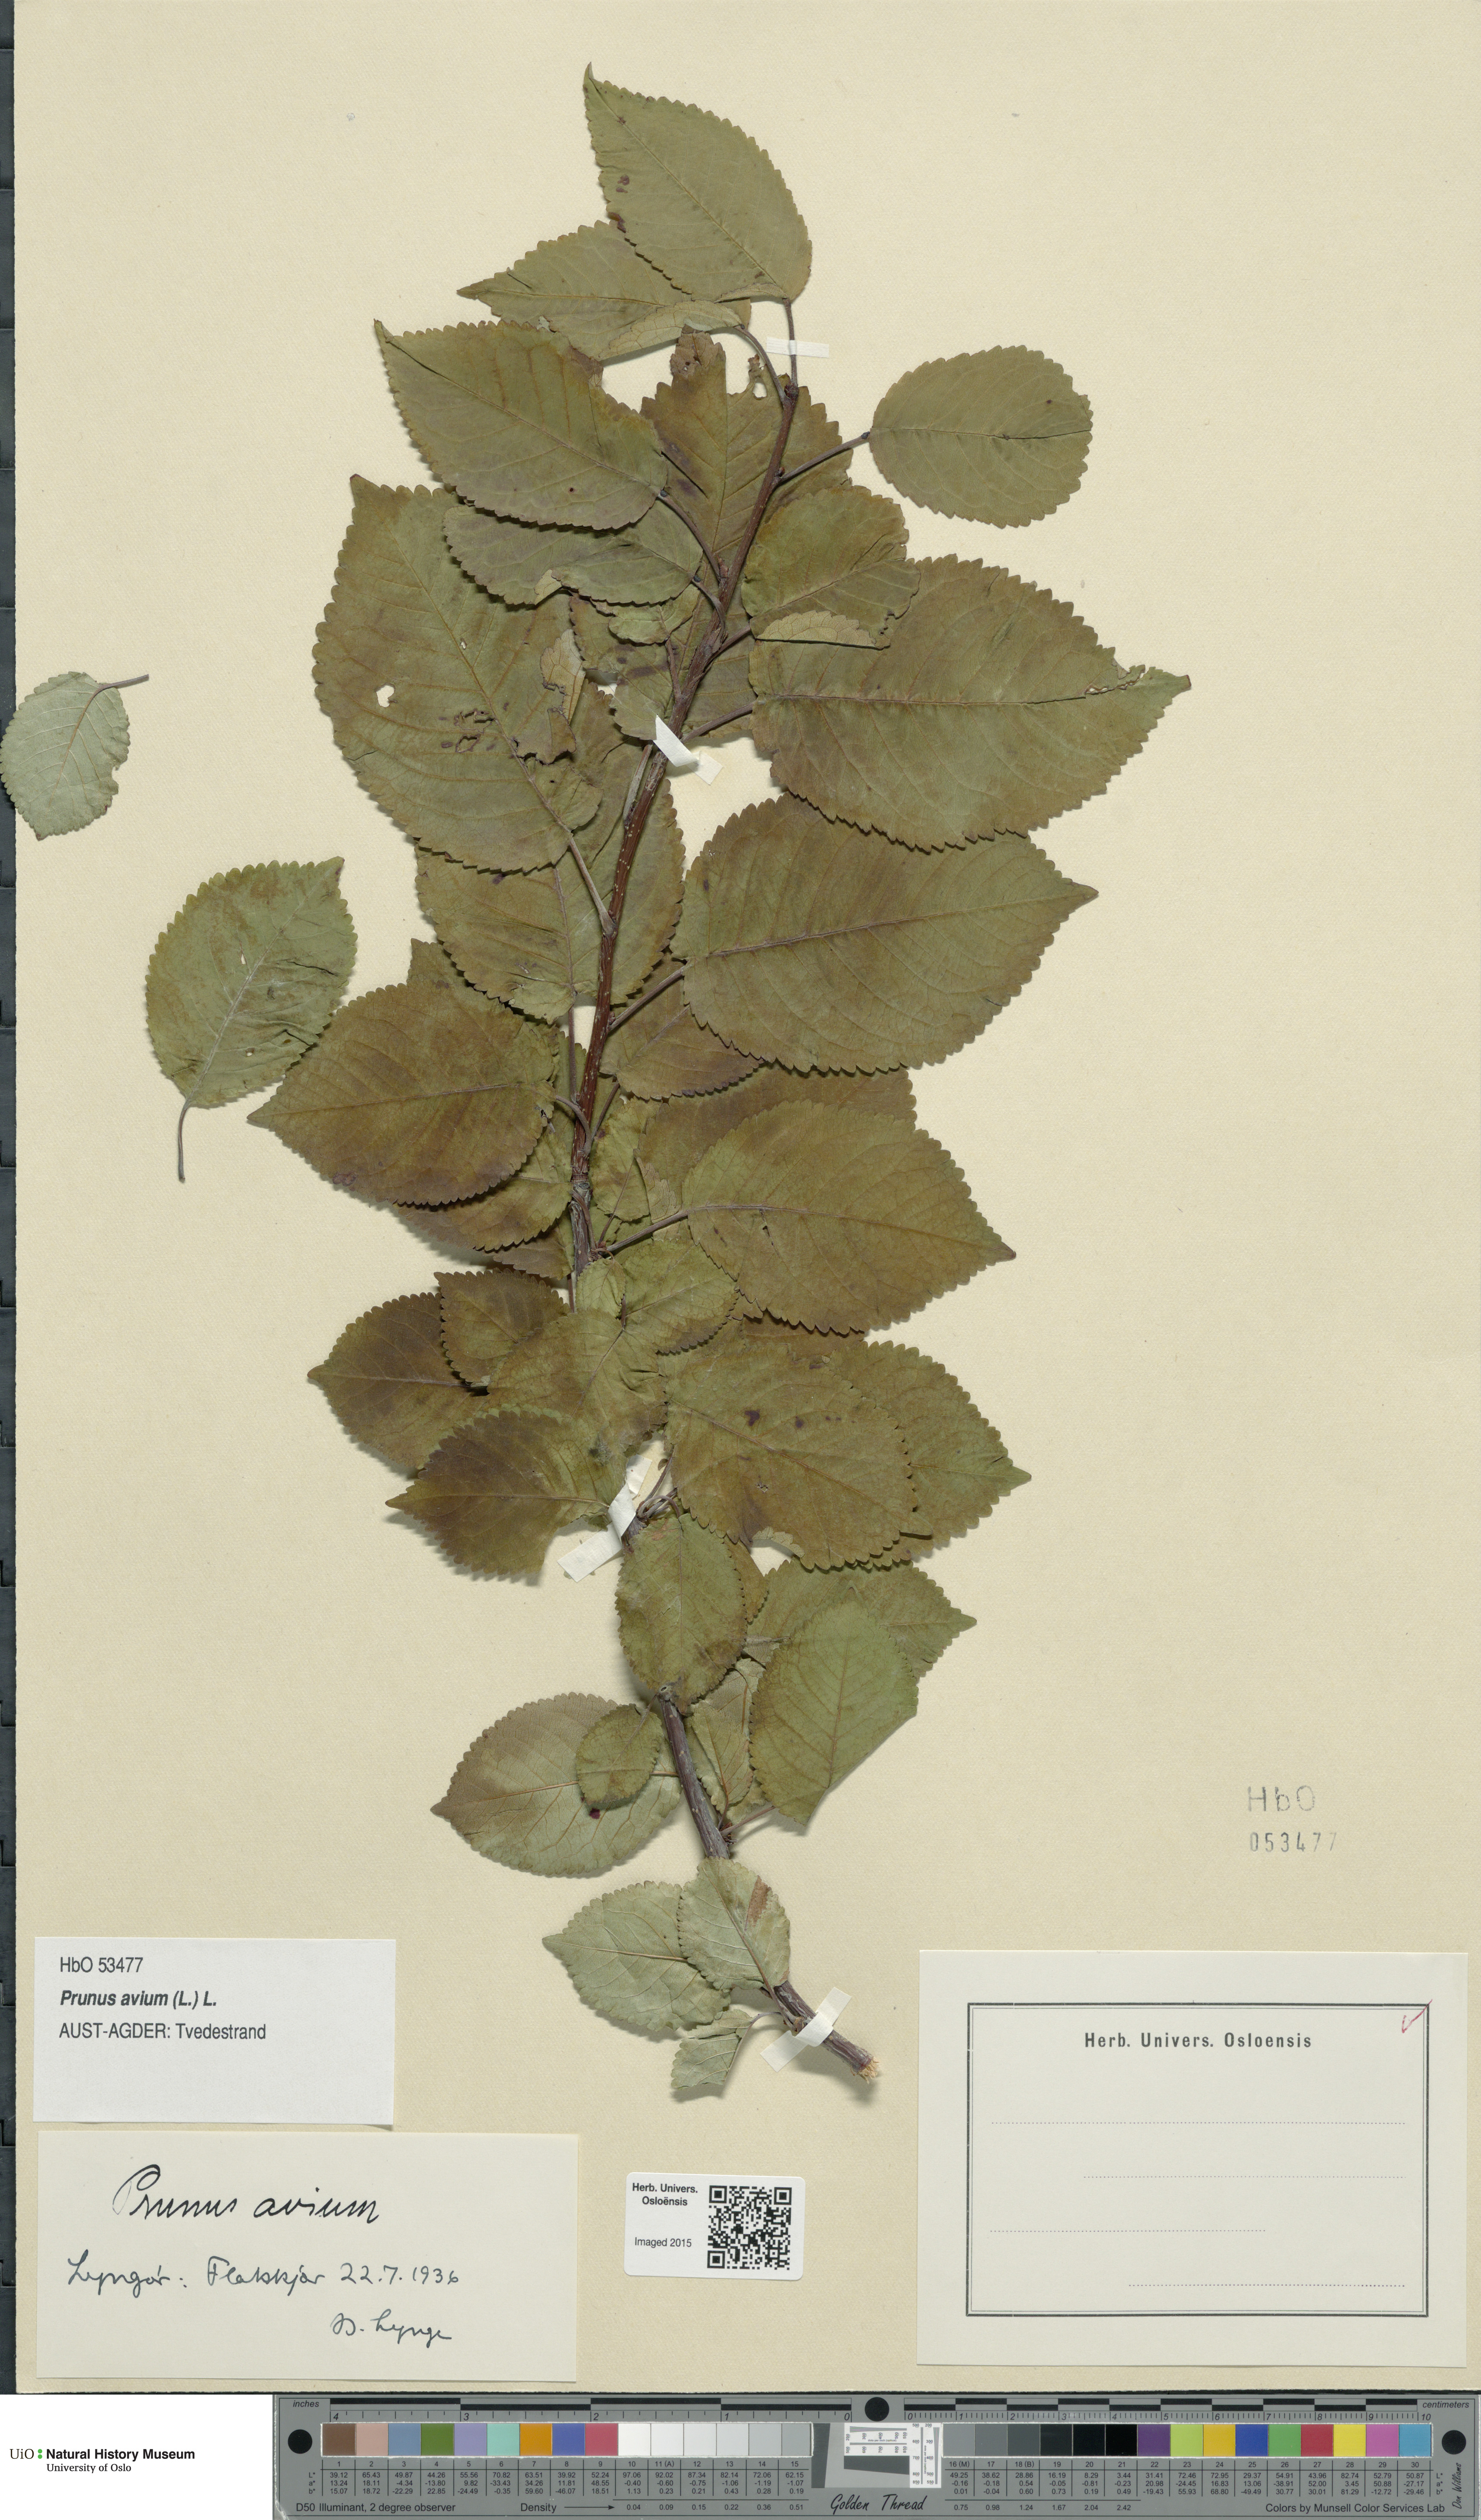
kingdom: Plantae
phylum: Tracheophyta
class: Magnoliopsida
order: Rosales
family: Rosaceae
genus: Prunus
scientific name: Prunus avium
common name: Sweet cherry
